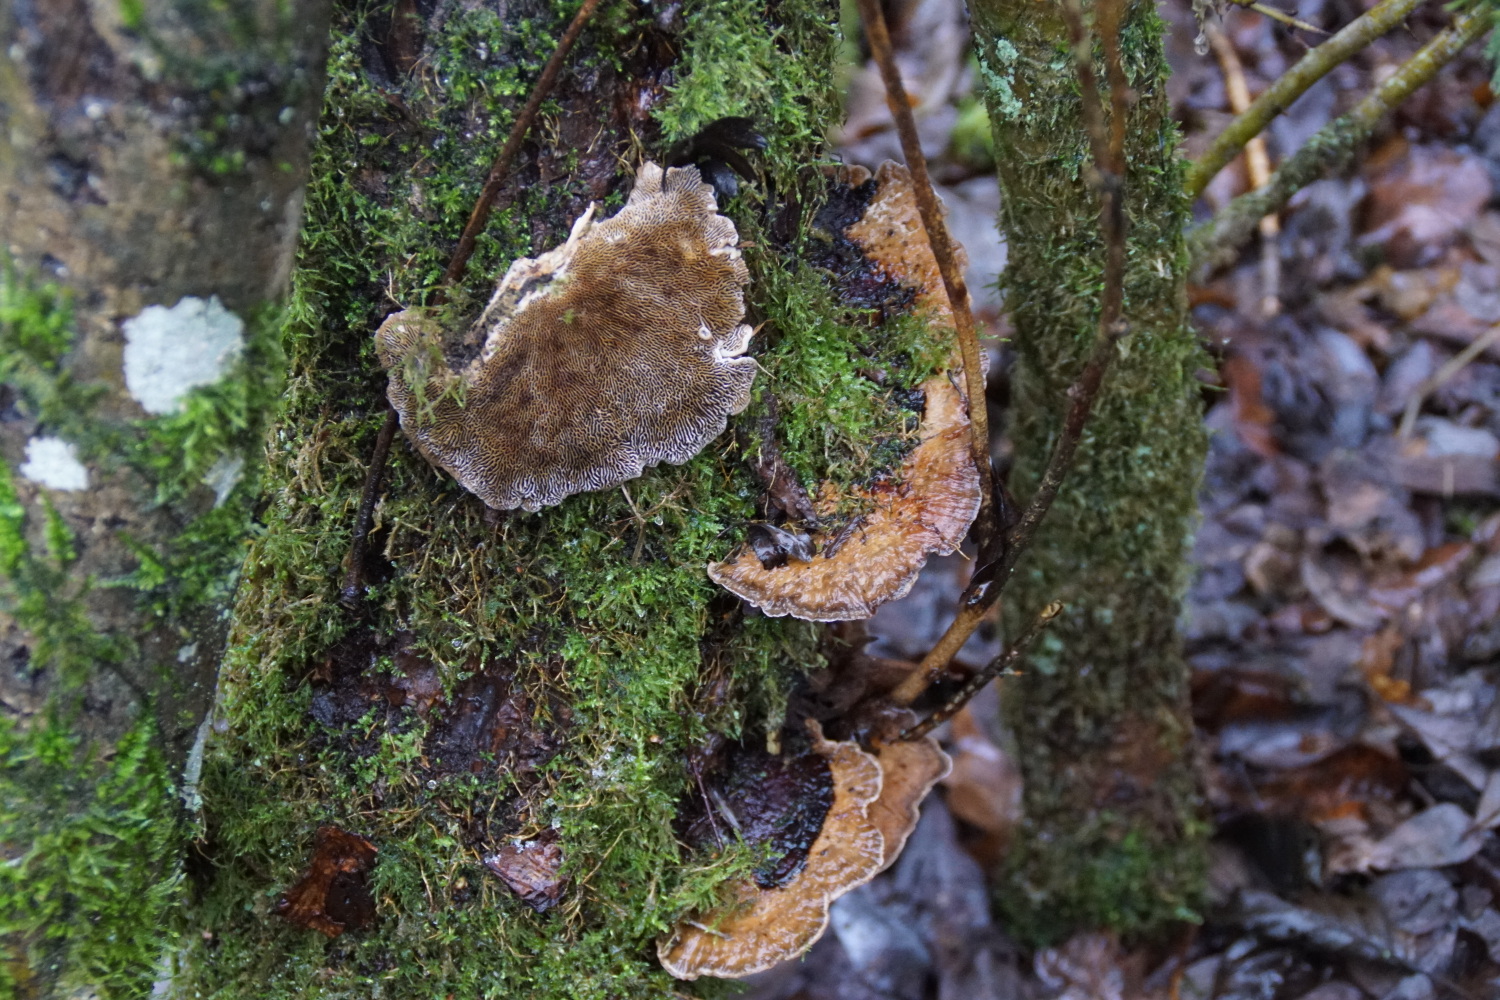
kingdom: Fungi
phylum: Basidiomycota
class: Agaricomycetes
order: Polyporales
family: Polyporaceae
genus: Daedaleopsis
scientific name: Daedaleopsis confragosa
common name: rødmende læderporesvamp
